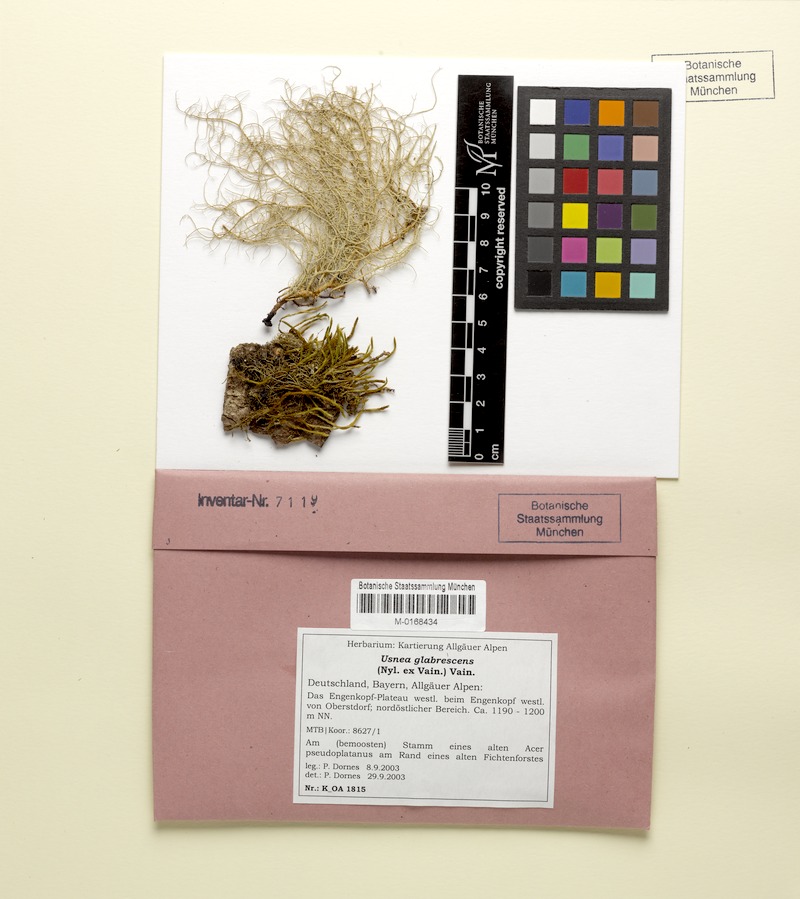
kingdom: Fungi
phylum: Ascomycota
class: Lecanoromycetes
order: Lecanorales
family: Parmeliaceae
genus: Usnea
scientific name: Usnea glabrescens
